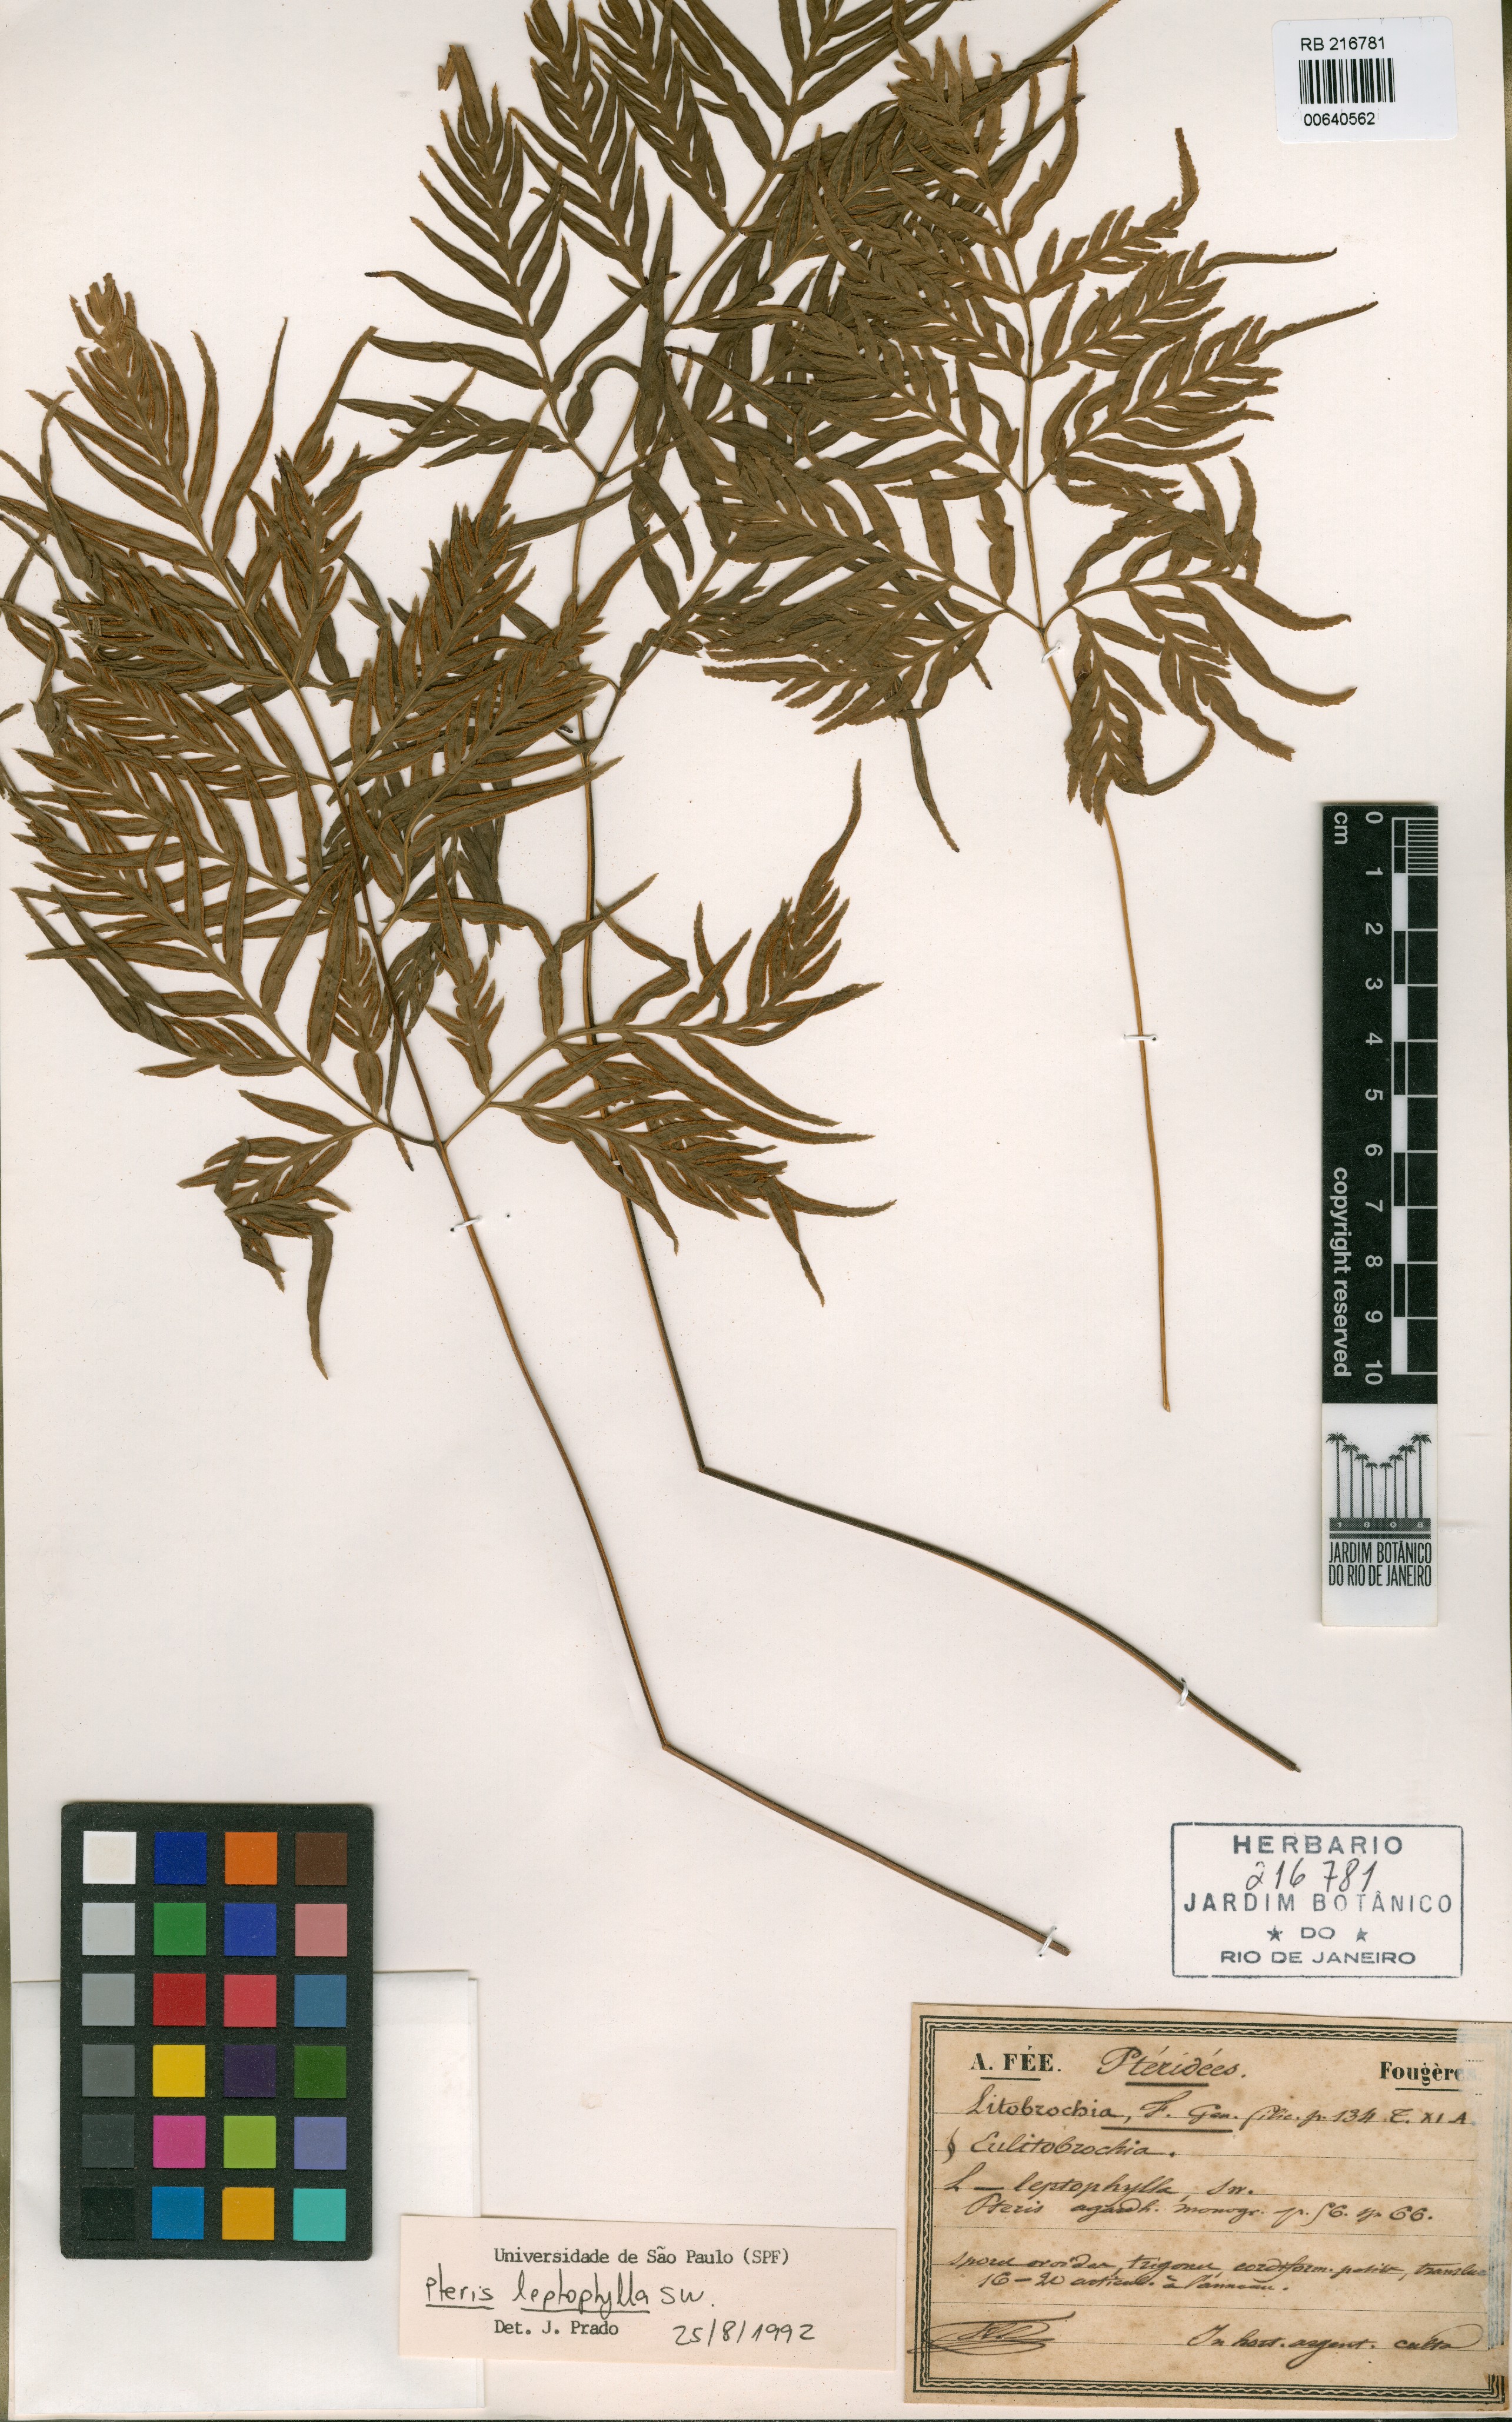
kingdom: Plantae
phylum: Tracheophyta
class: Polypodiopsida
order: Polypodiales
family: Pteridaceae
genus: Pteris
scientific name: Pteris leptophylla
